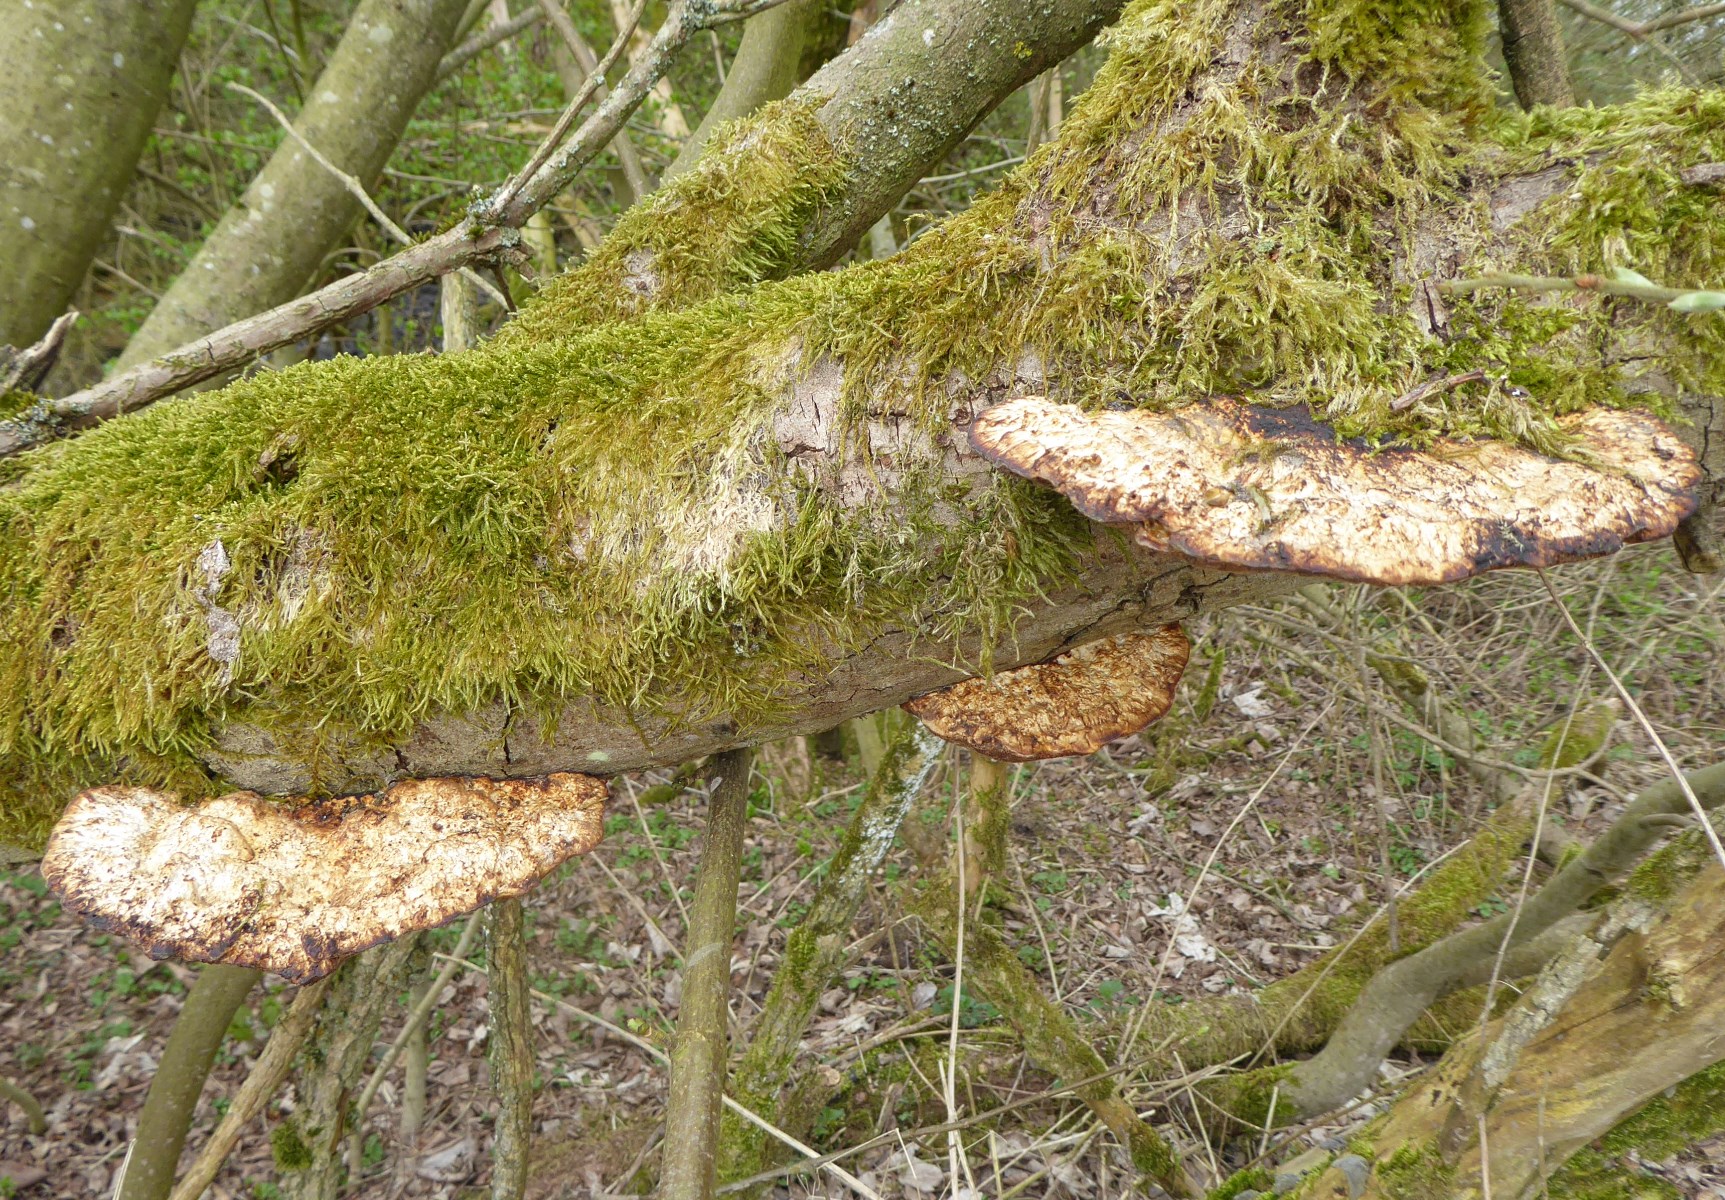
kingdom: Fungi
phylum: Basidiomycota
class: Agaricomycetes
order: Polyporales
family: Polyporaceae
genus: Daedaleopsis
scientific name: Daedaleopsis confragosa
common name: rødmende læderporesvamp
